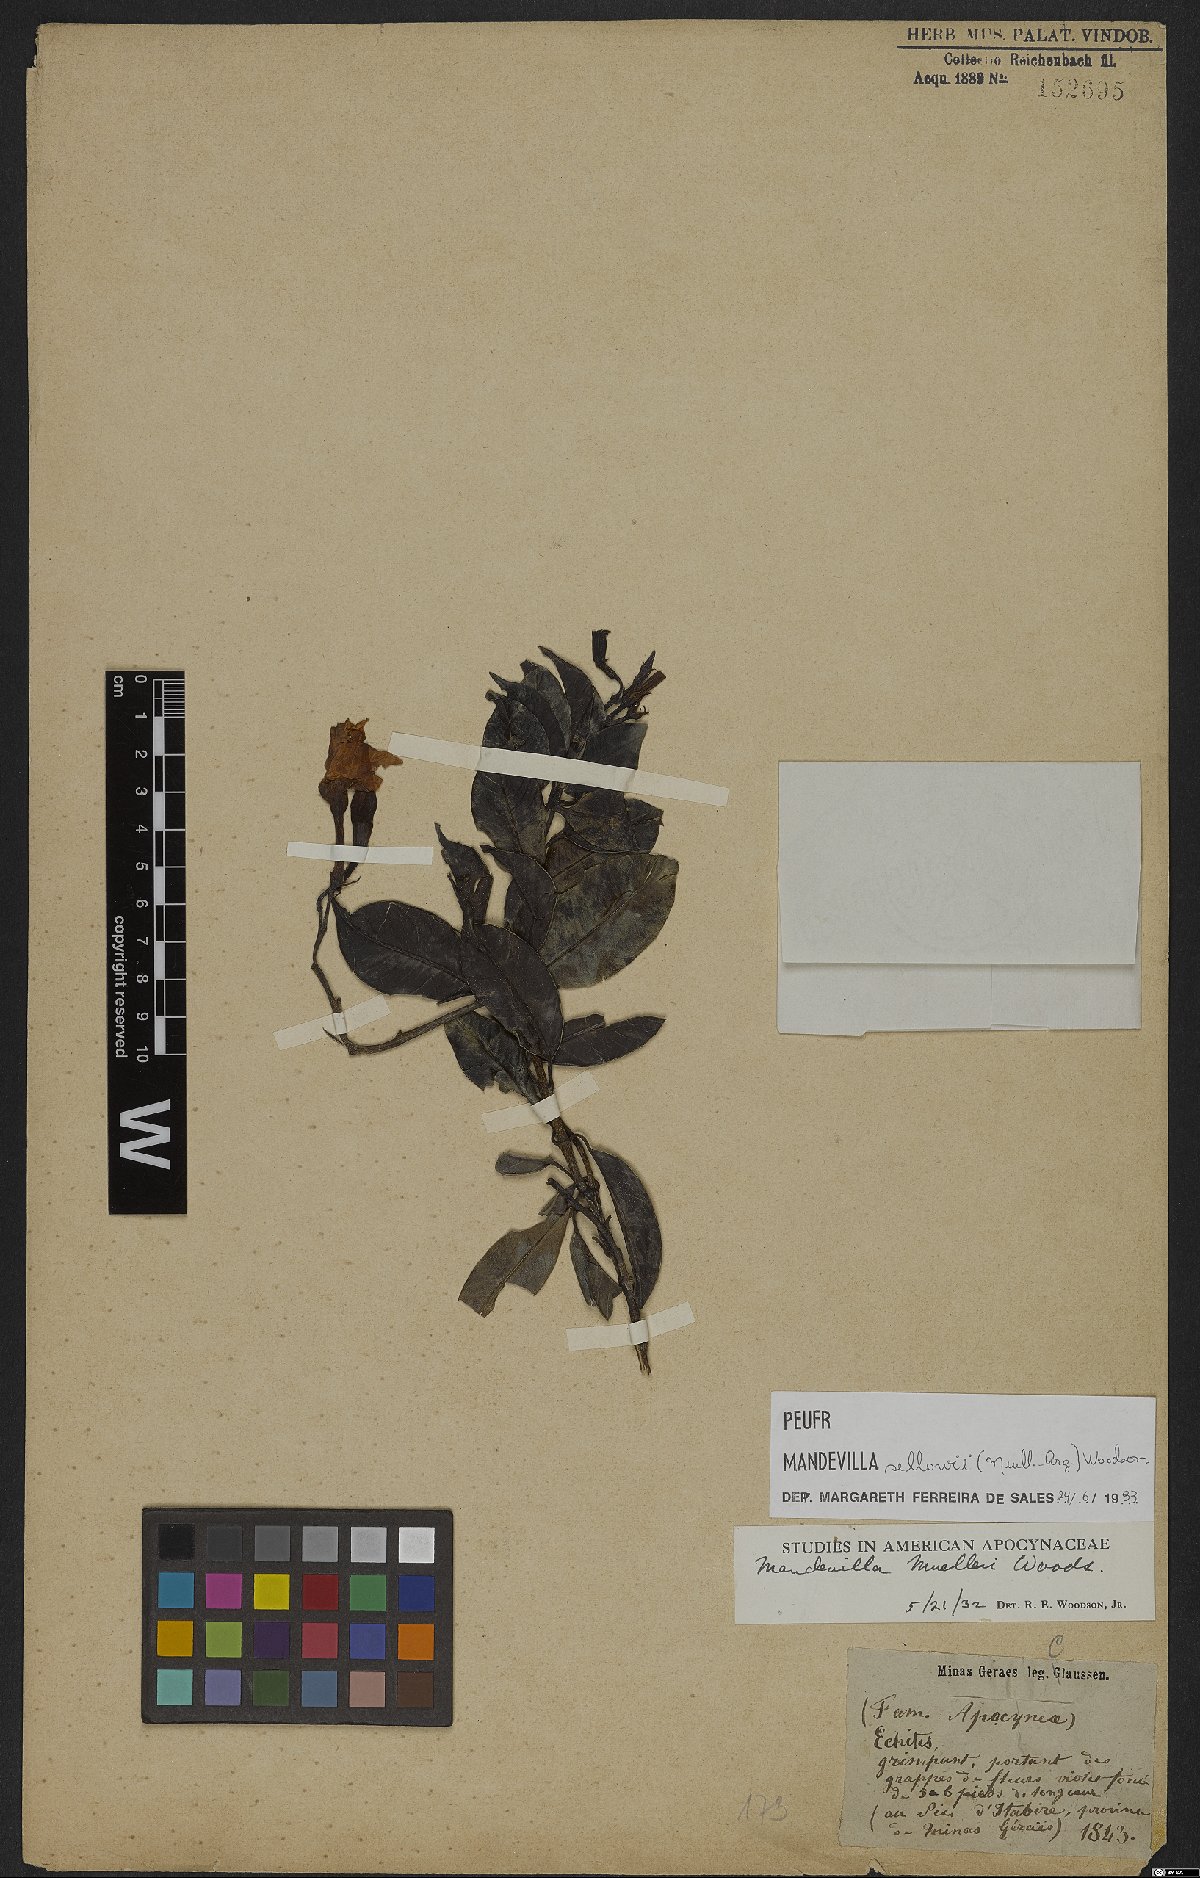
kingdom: Plantae
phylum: Tracheophyta
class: Magnoliopsida
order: Gentianales
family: Apocynaceae
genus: Mandevilla
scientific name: Mandevilla sellowii
